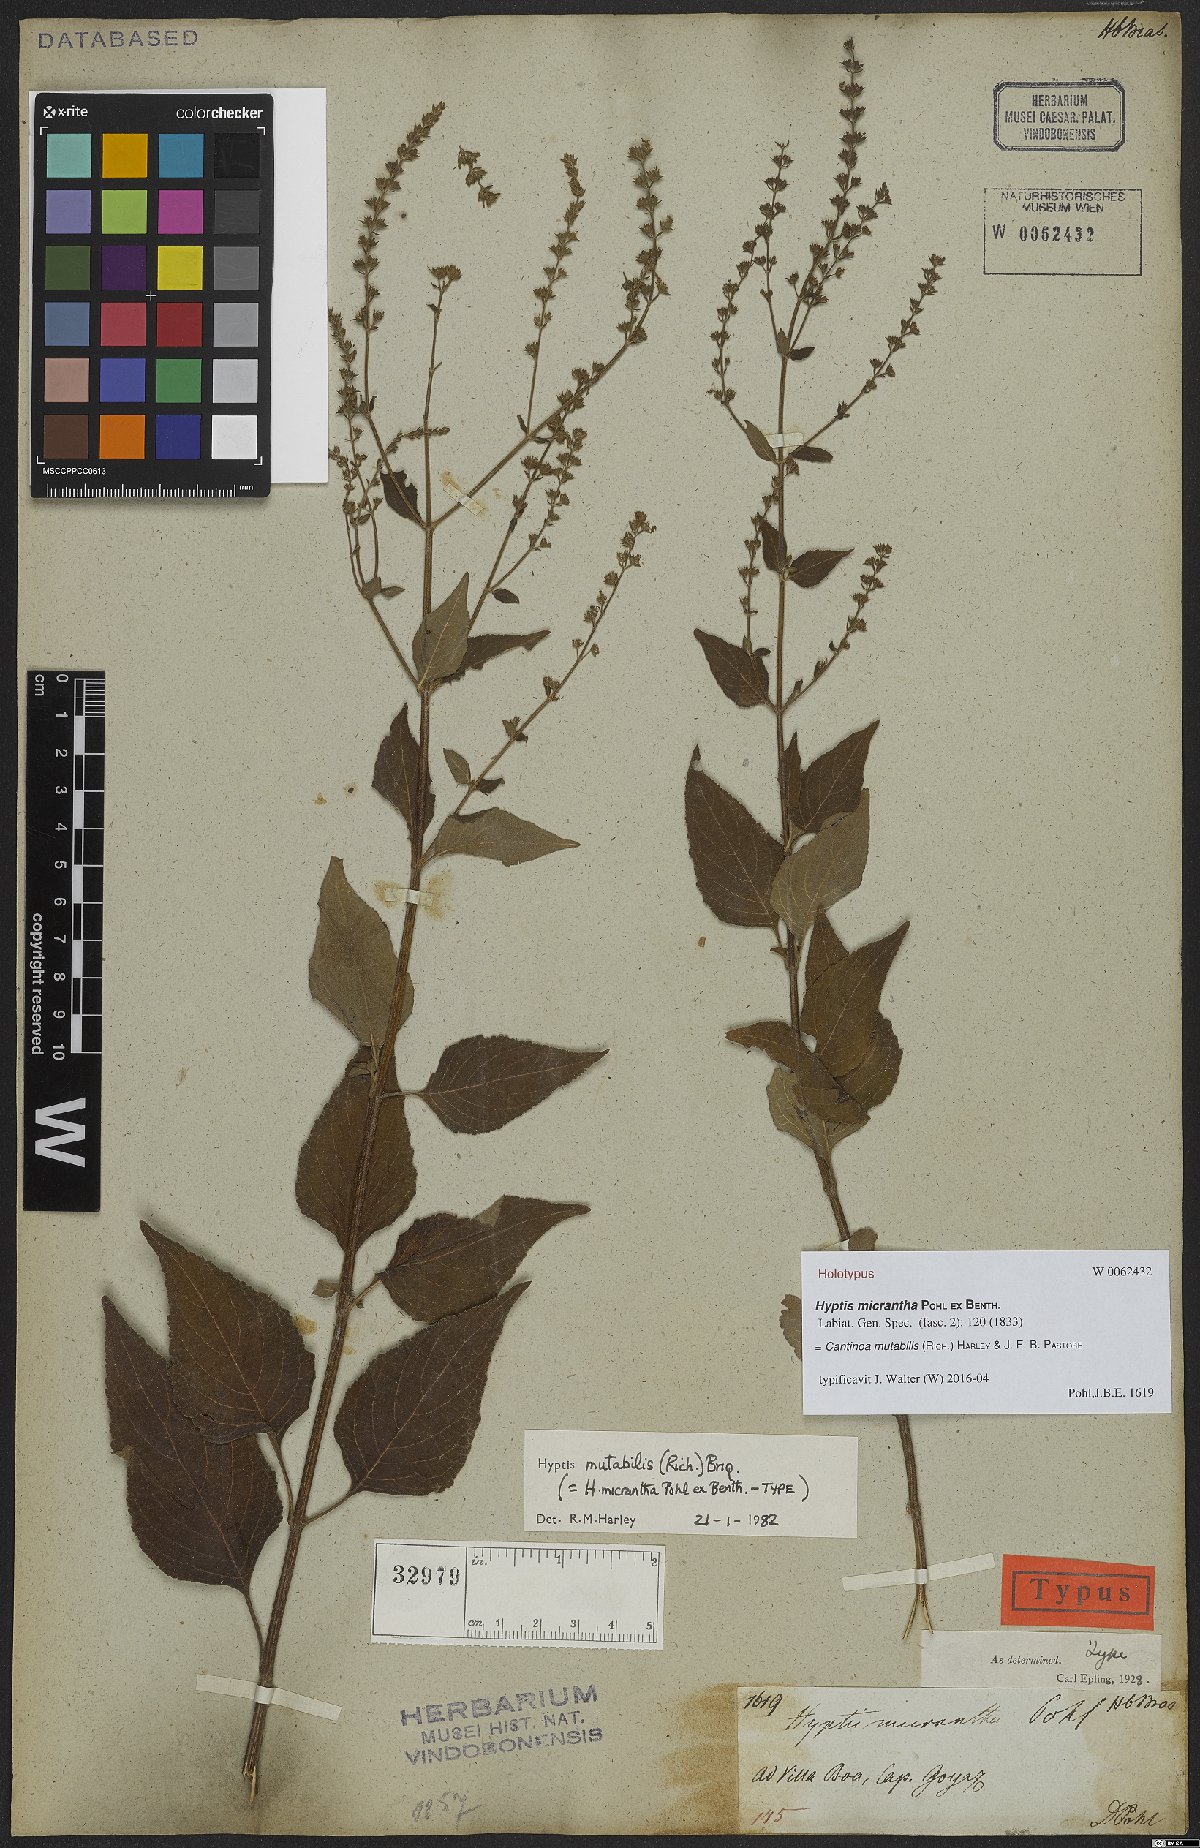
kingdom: Plantae
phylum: Tracheophyta
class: Magnoliopsida
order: Lamiales
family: Lamiaceae
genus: Cantinoa
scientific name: Cantinoa mutabilis
